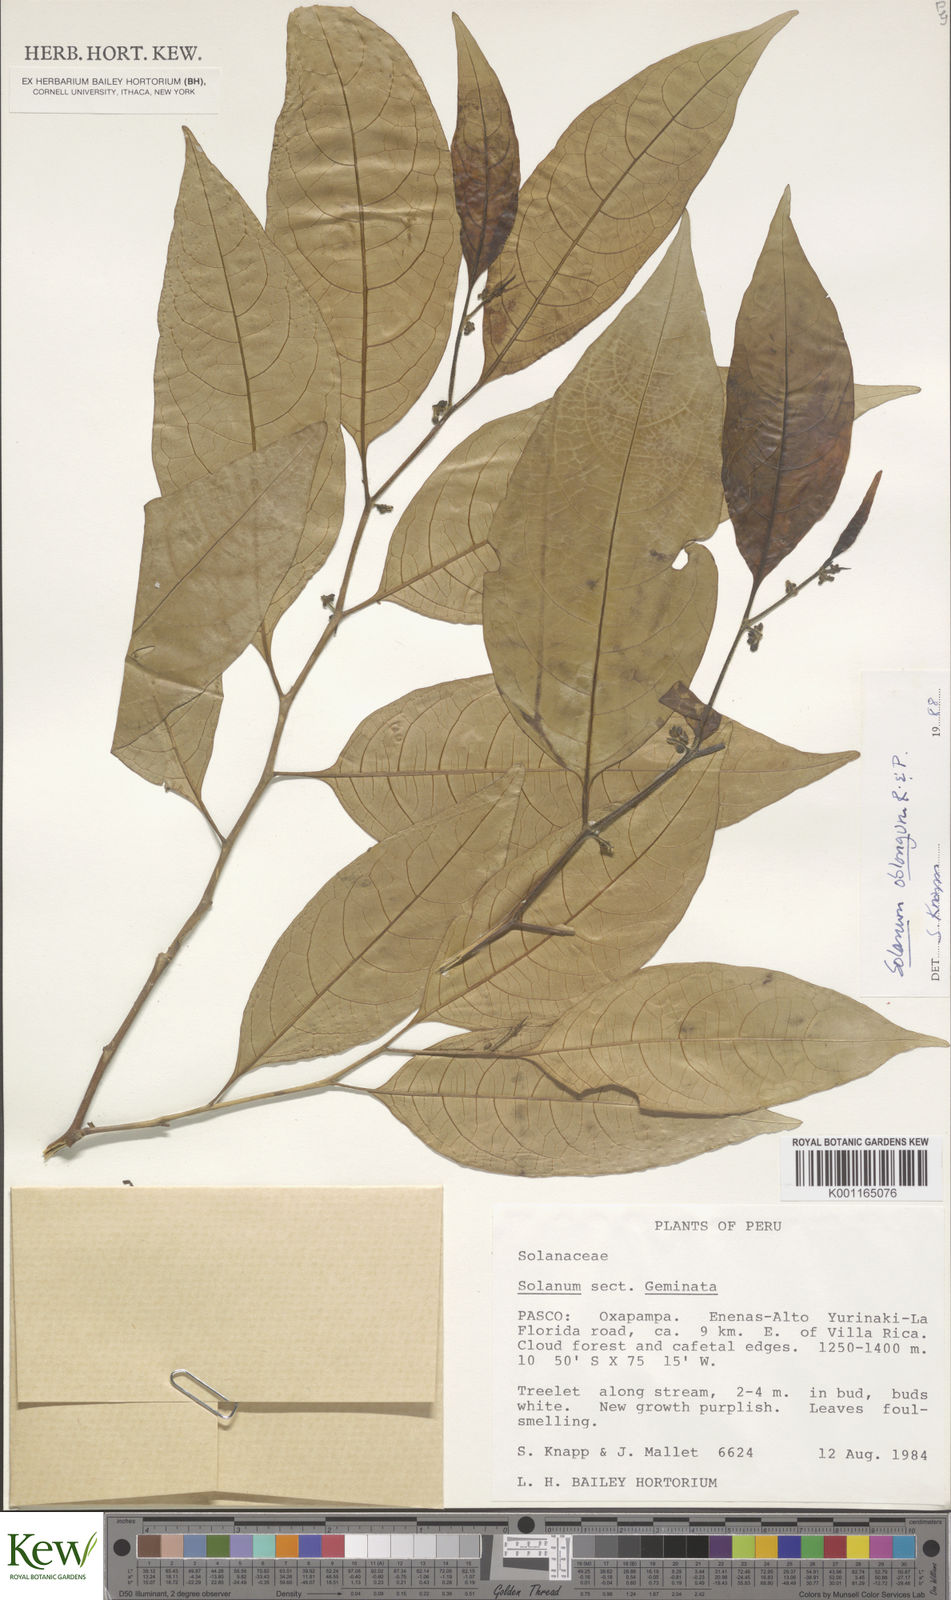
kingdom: Plantae
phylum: Tracheophyta
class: Magnoliopsida
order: Solanales
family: Solanaceae
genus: Solanum
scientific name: Solanum oblongum
